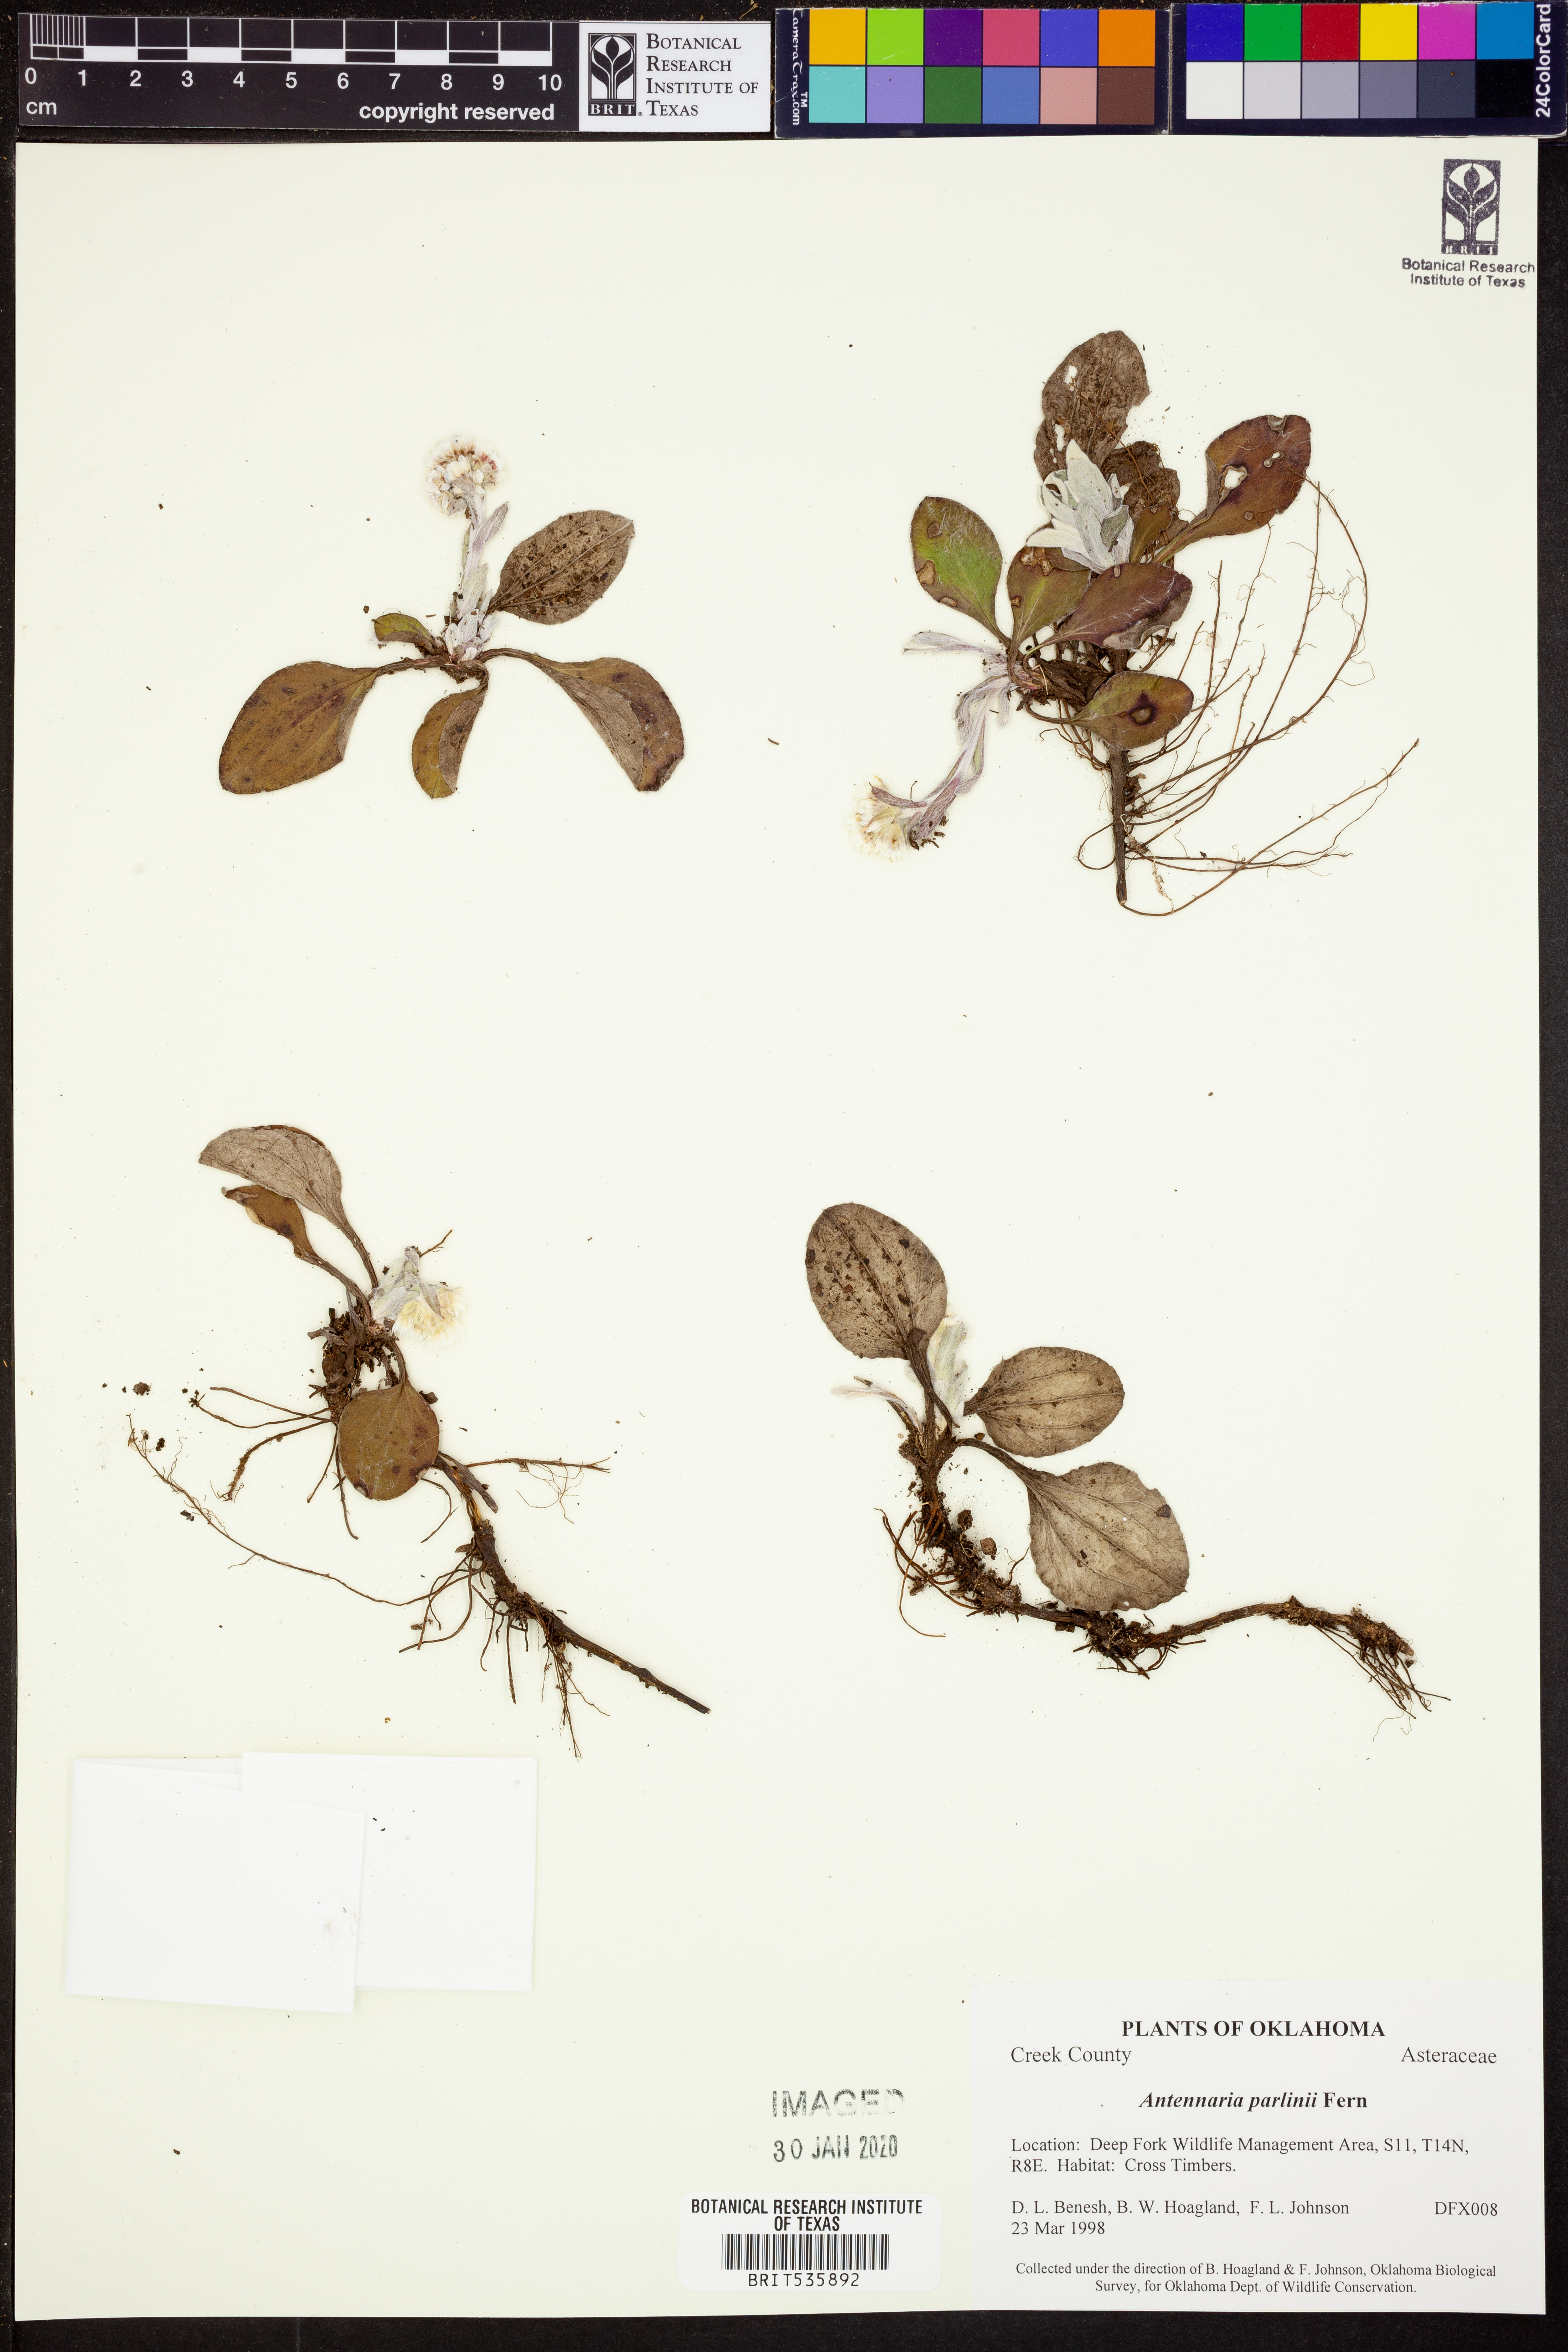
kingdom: Plantae
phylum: Tracheophyta
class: Magnoliopsida
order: Asterales
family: Asteraceae
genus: Antennaria
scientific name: Antennaria parlinii
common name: Parlin's pussytoes
